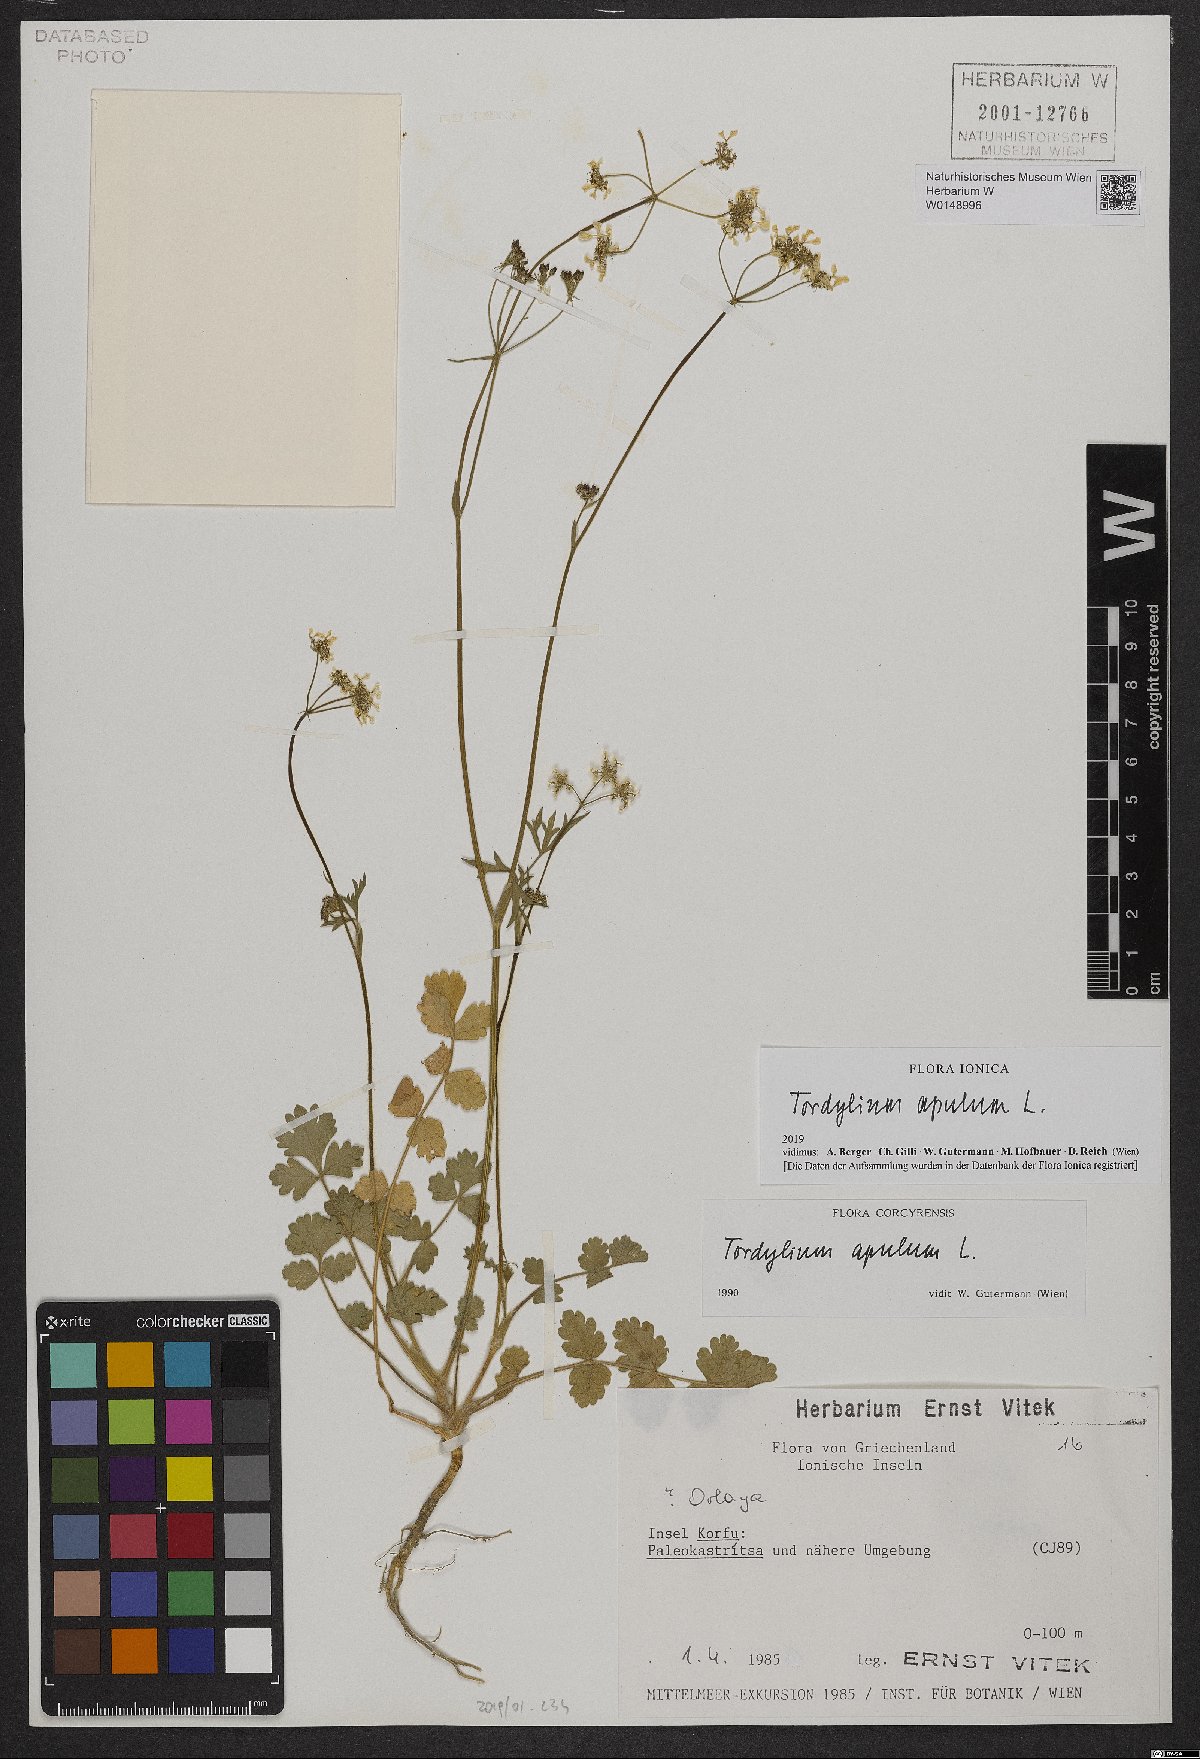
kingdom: Plantae
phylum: Tracheophyta
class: Magnoliopsida
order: Apiales
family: Apiaceae
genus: Tordylium
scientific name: Tordylium apulum
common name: Mediterranean hartwort
